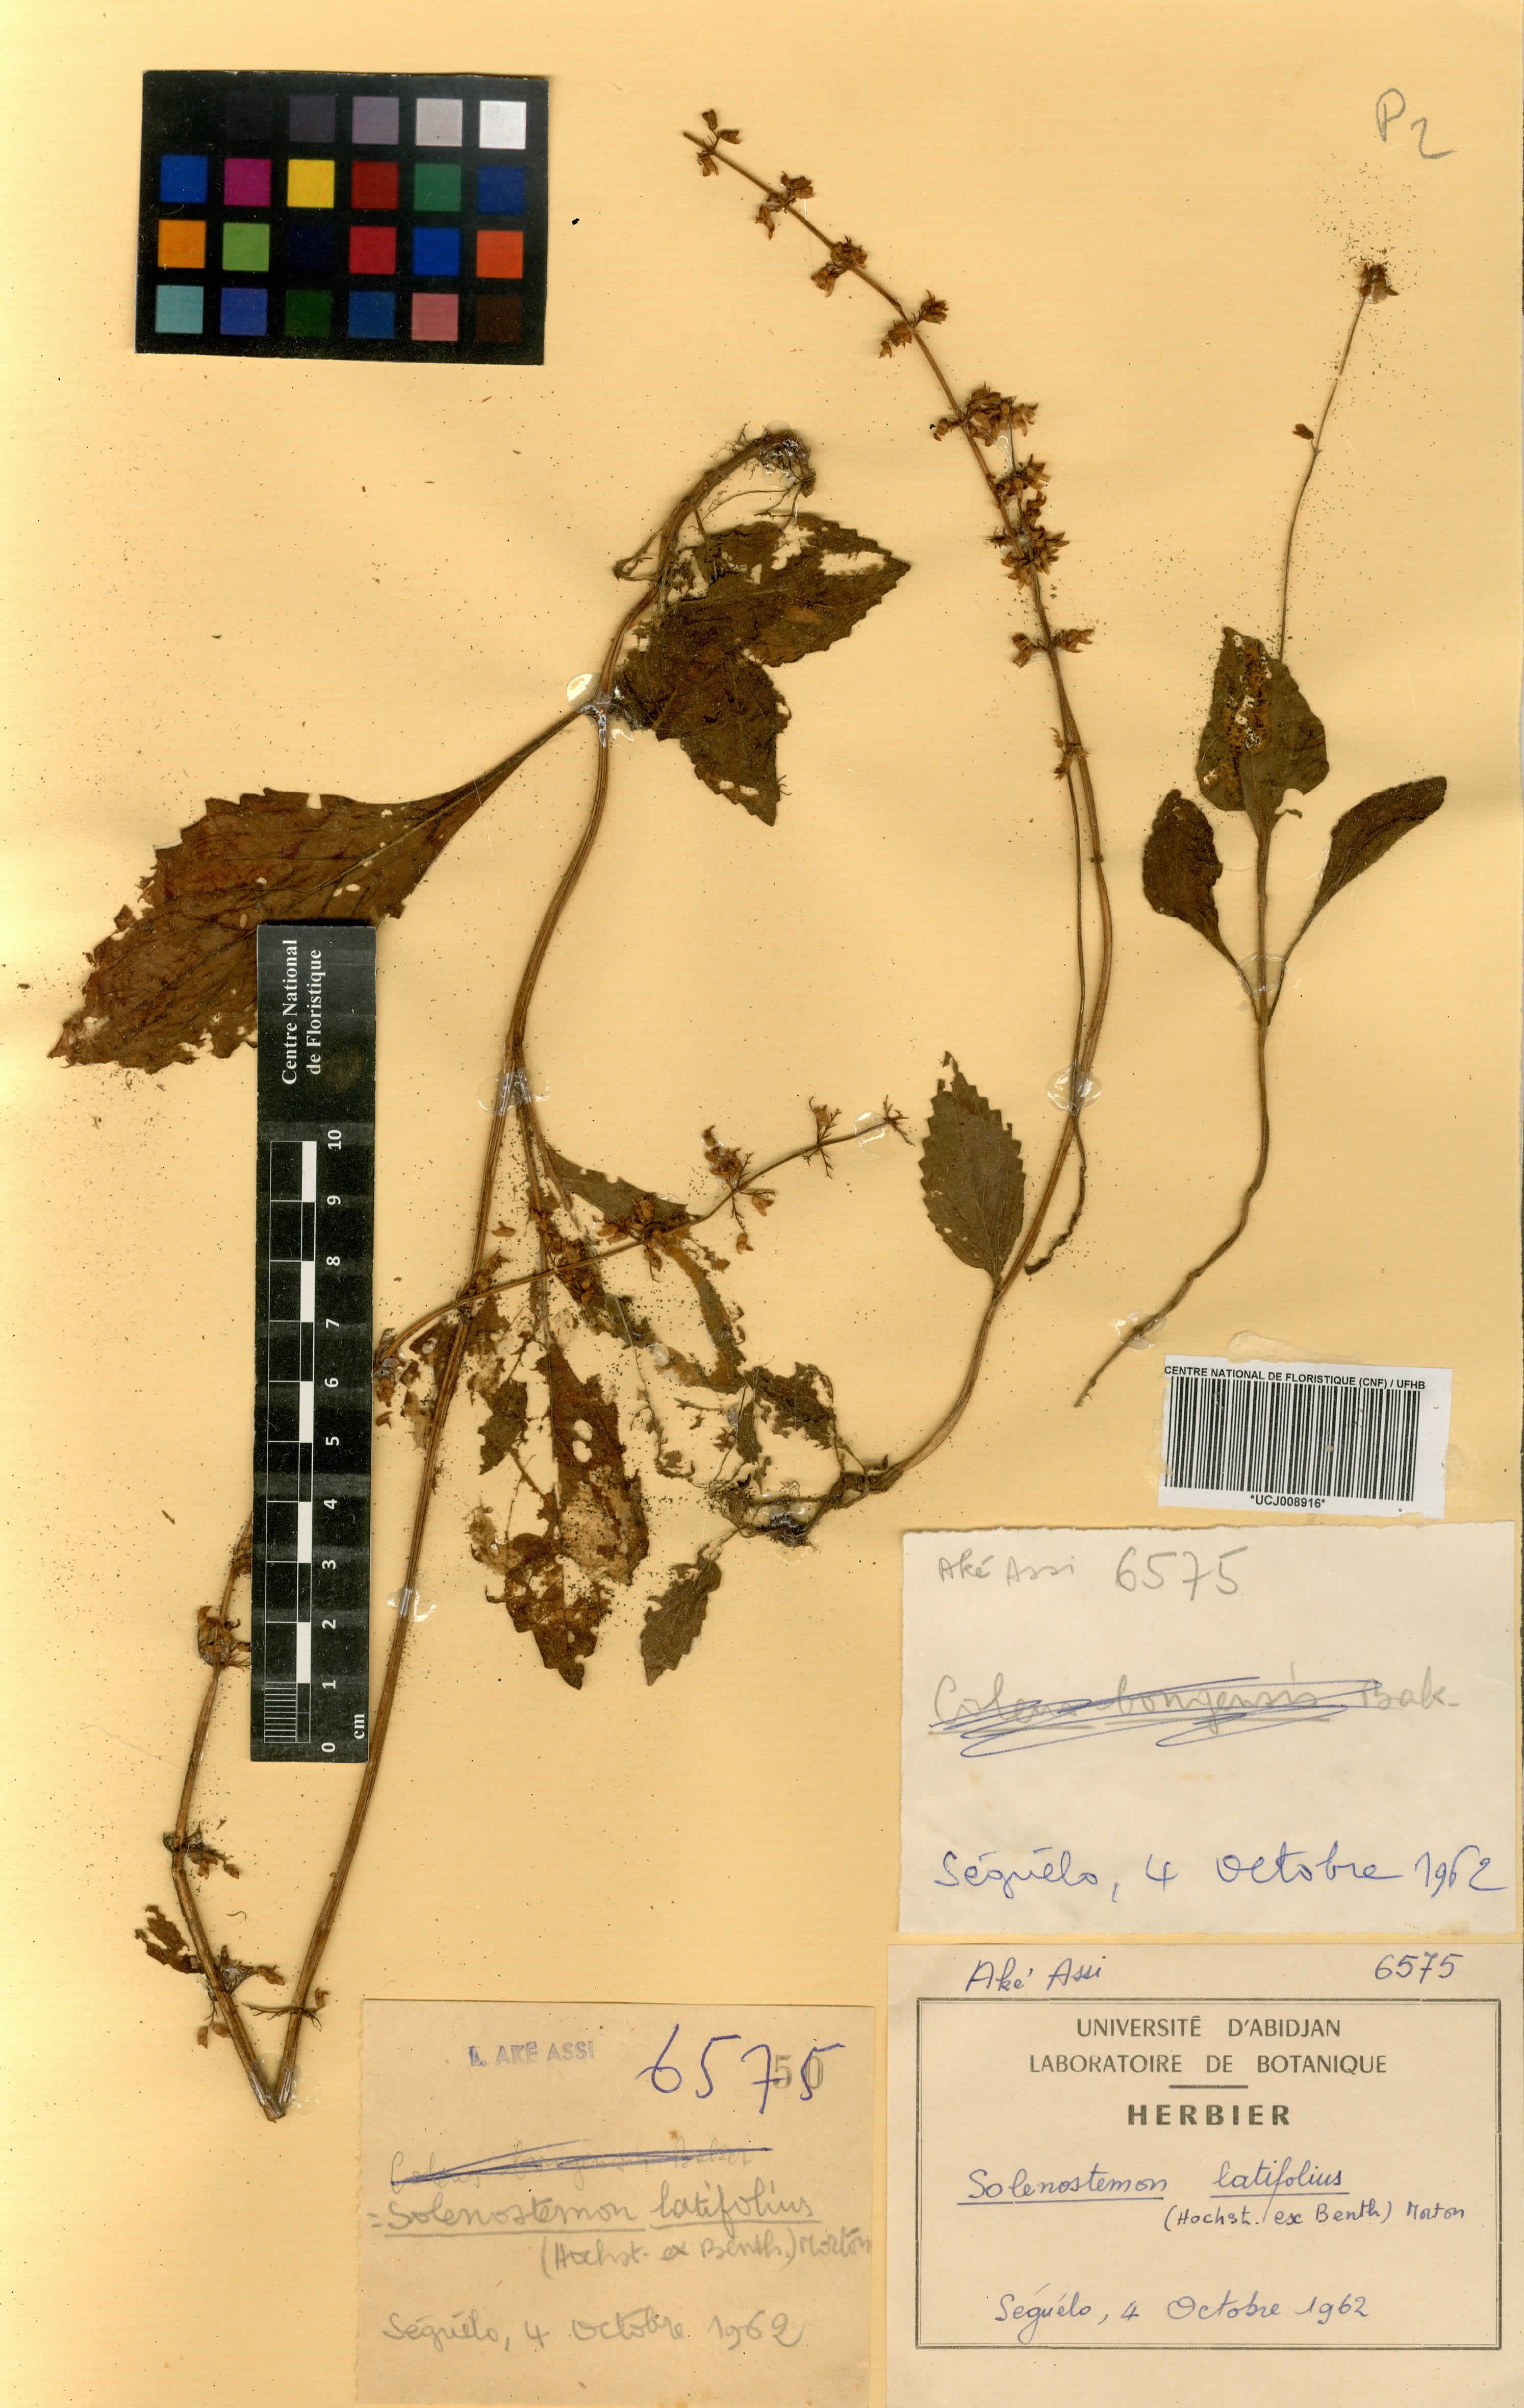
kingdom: Plantae
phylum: Tracheophyta
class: Magnoliopsida
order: Lamiales
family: Lamiaceae
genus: Coleus
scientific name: Coleus bojeri
